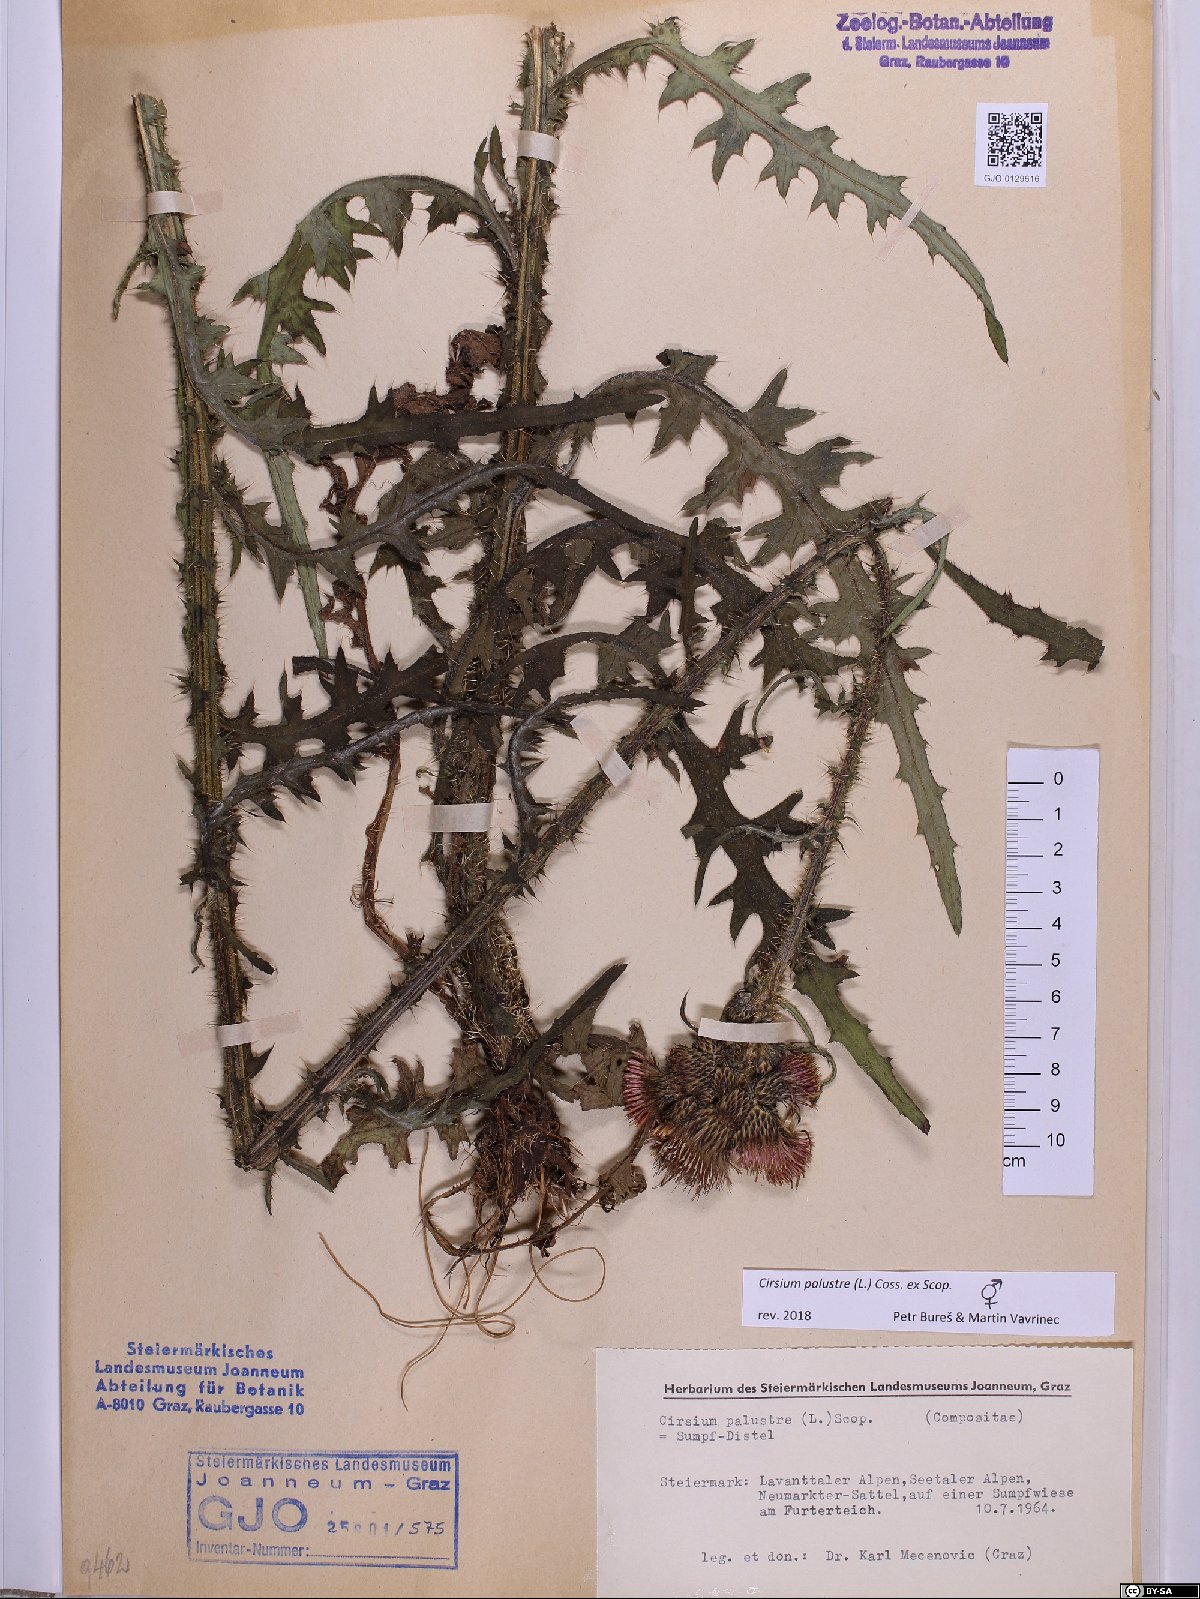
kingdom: Plantae
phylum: Tracheophyta
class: Magnoliopsida
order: Asterales
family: Asteraceae
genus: Cirsium
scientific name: Cirsium palustre
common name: Marsh thistle
